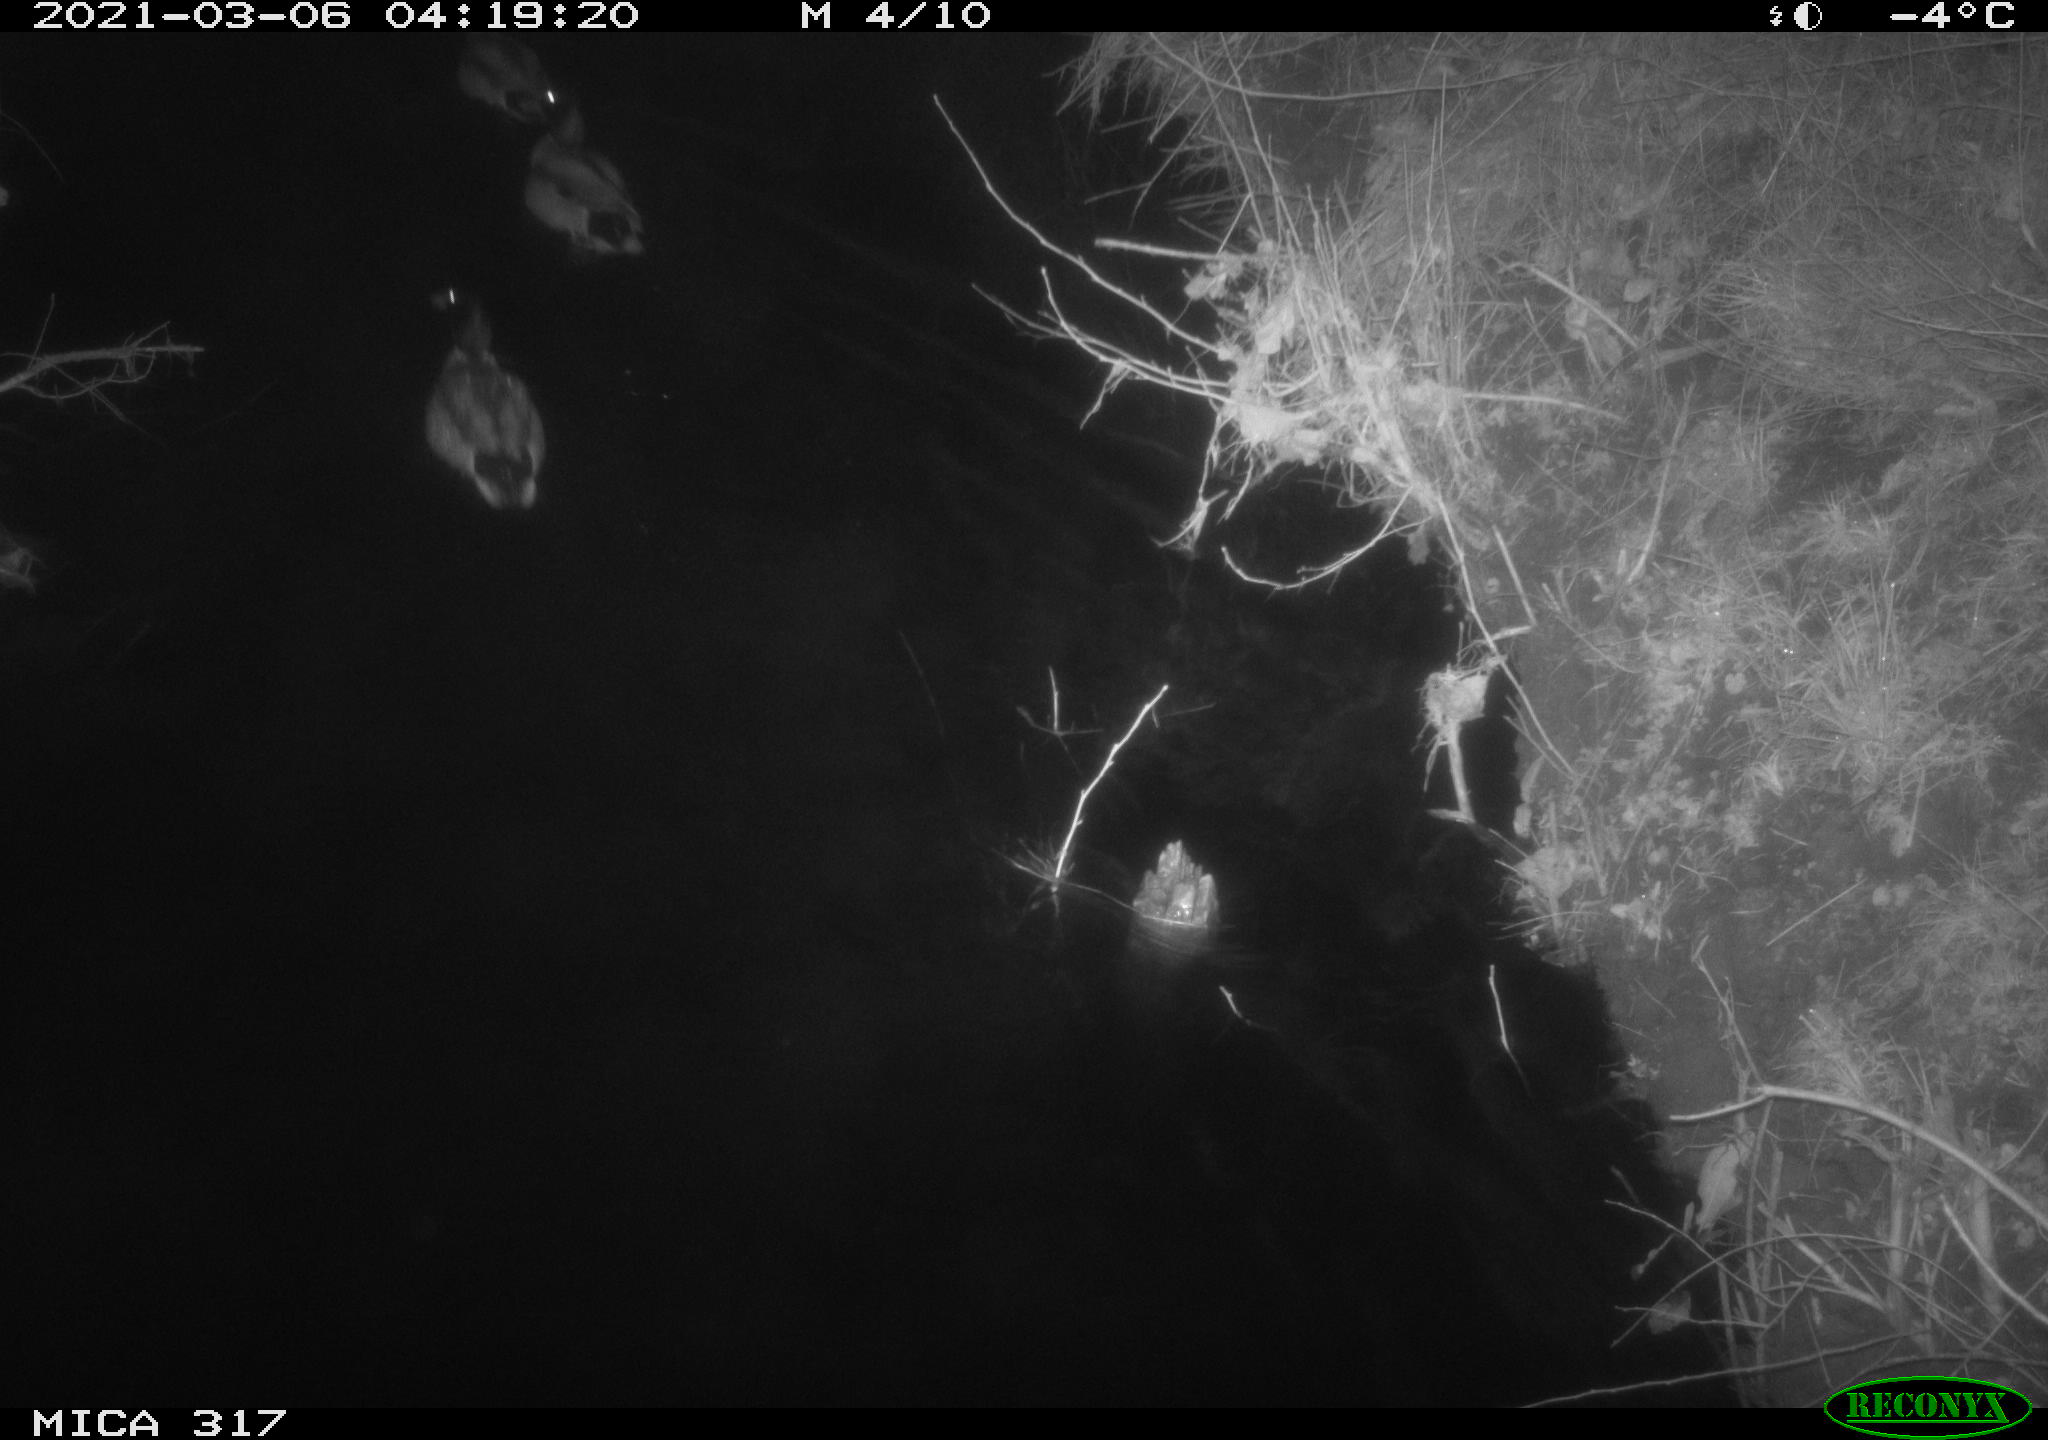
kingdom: Animalia
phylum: Chordata
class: Aves
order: Anseriformes
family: Anatidae
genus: Anas
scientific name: Anas platyrhynchos
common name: Mallard
